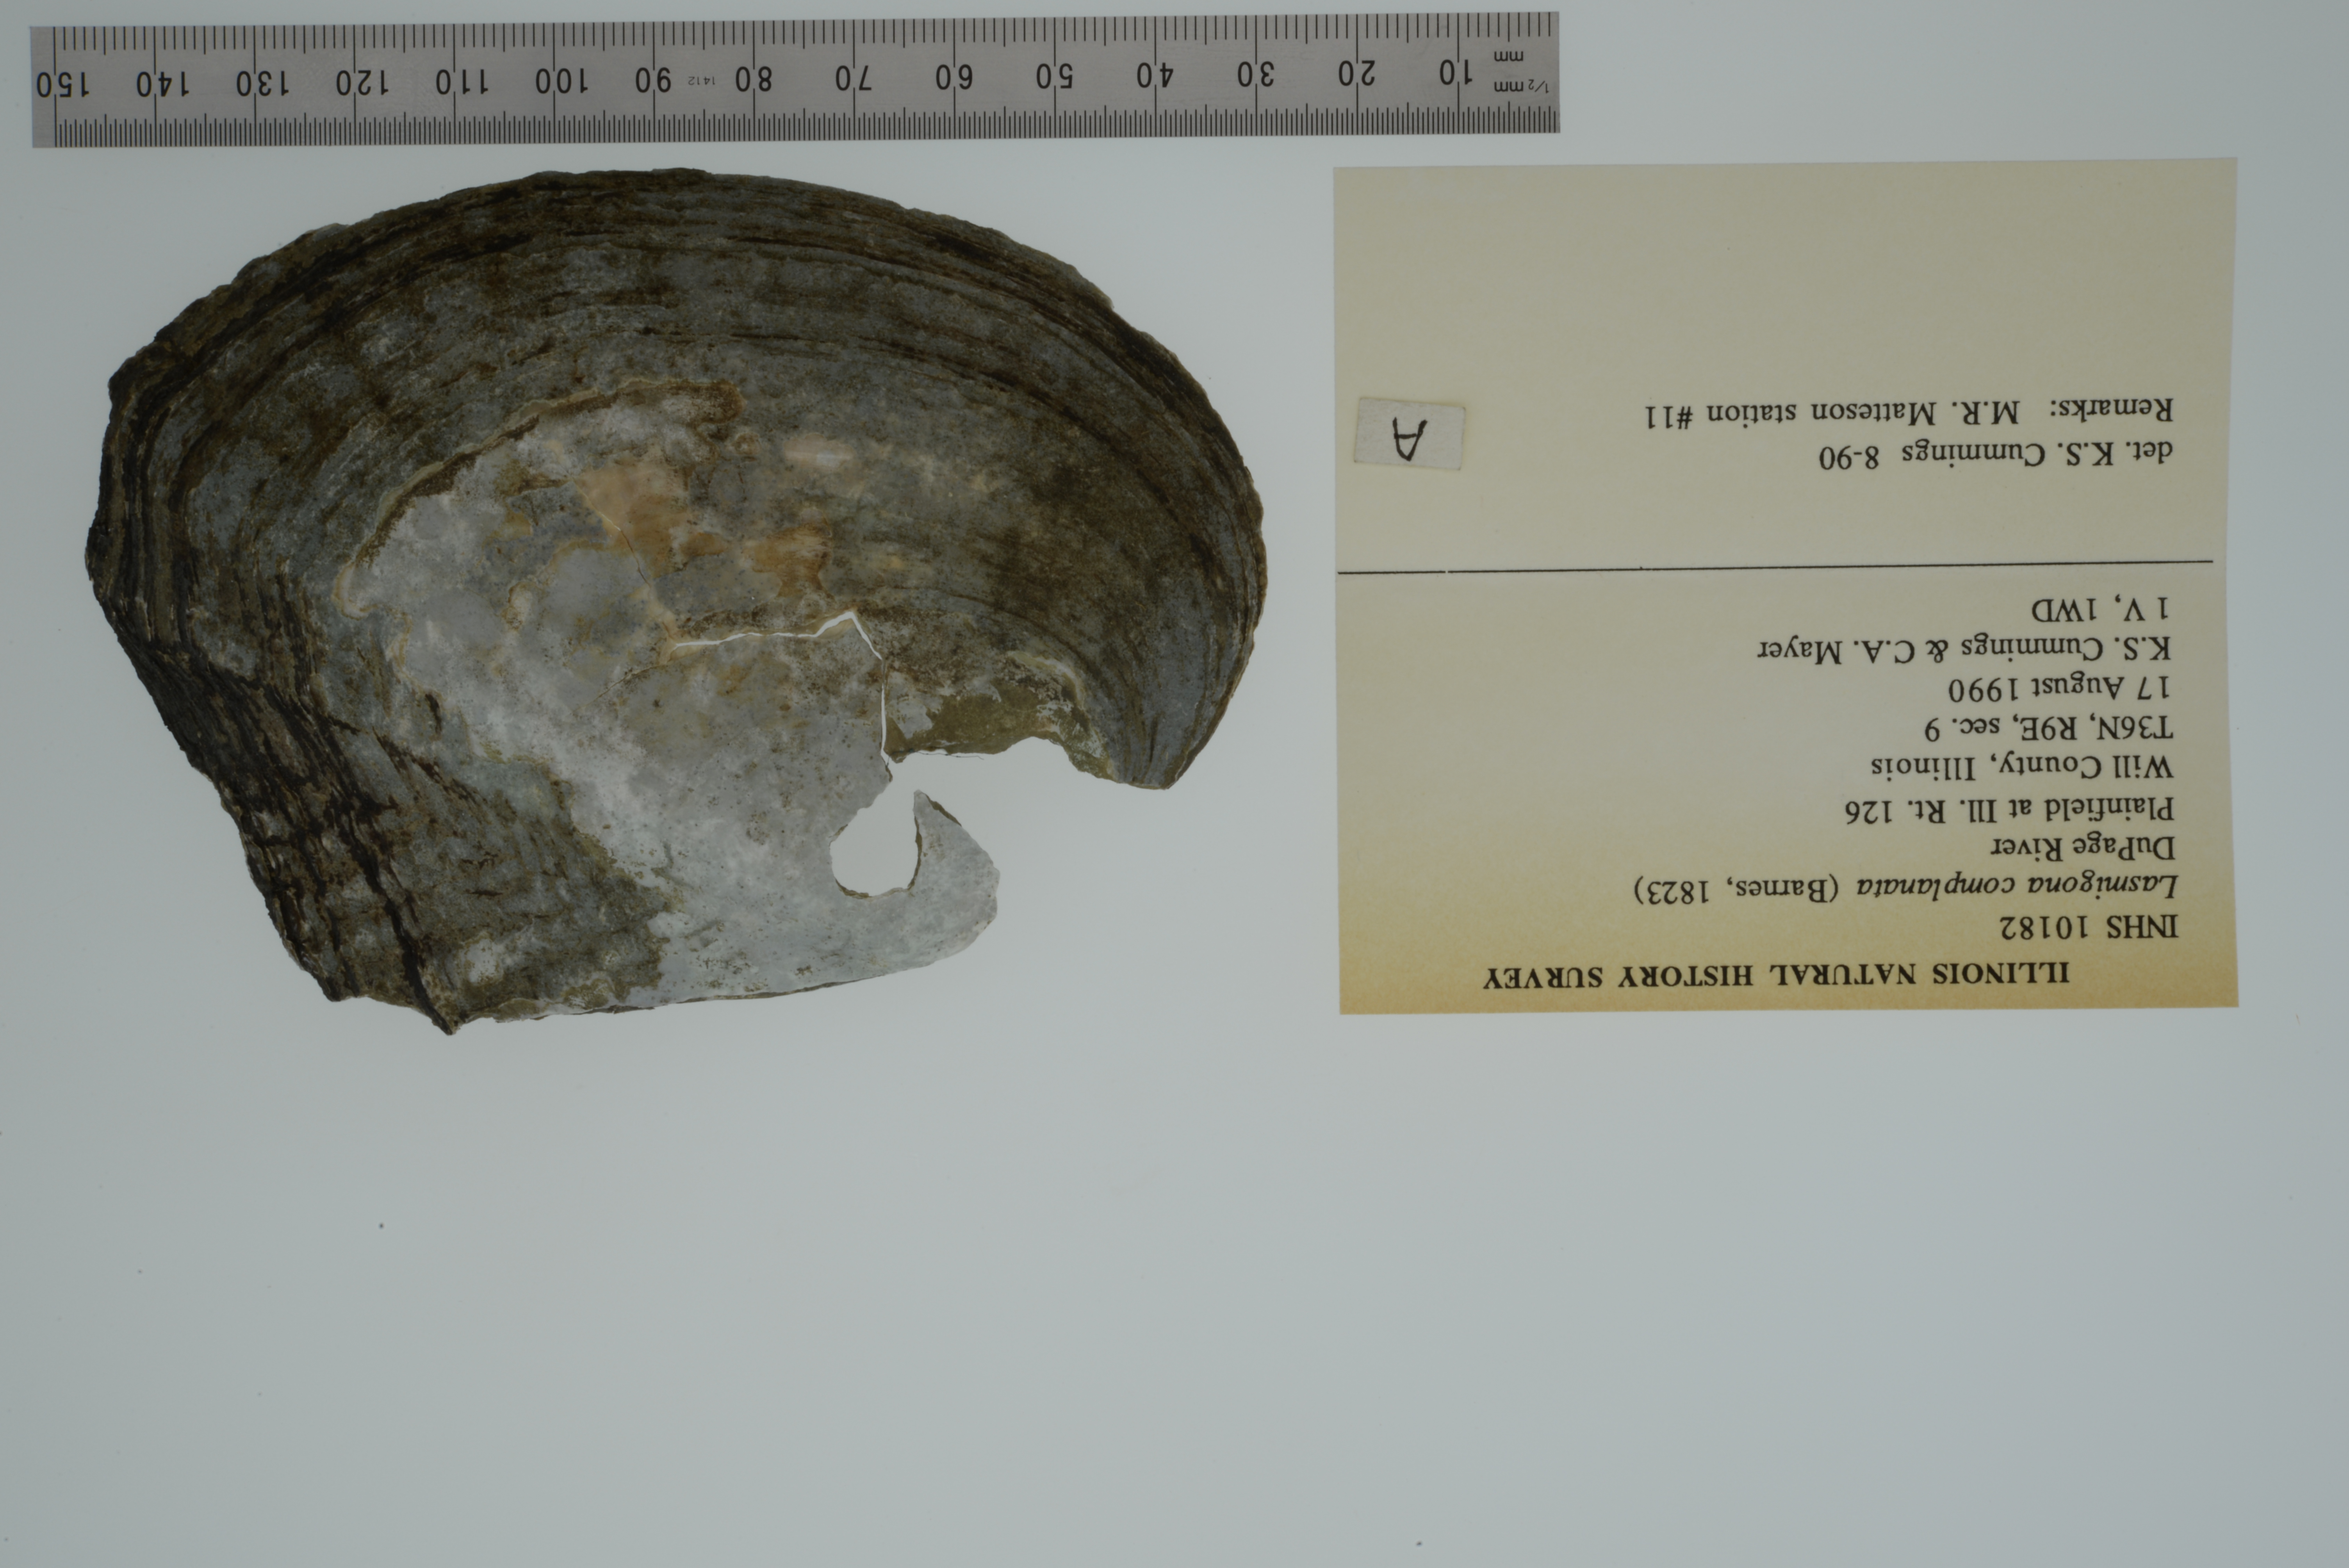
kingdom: Animalia
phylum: Mollusca
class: Bivalvia
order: Unionida
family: Unionidae
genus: Lasmigona
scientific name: Lasmigona complanata
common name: White heelsplitter
